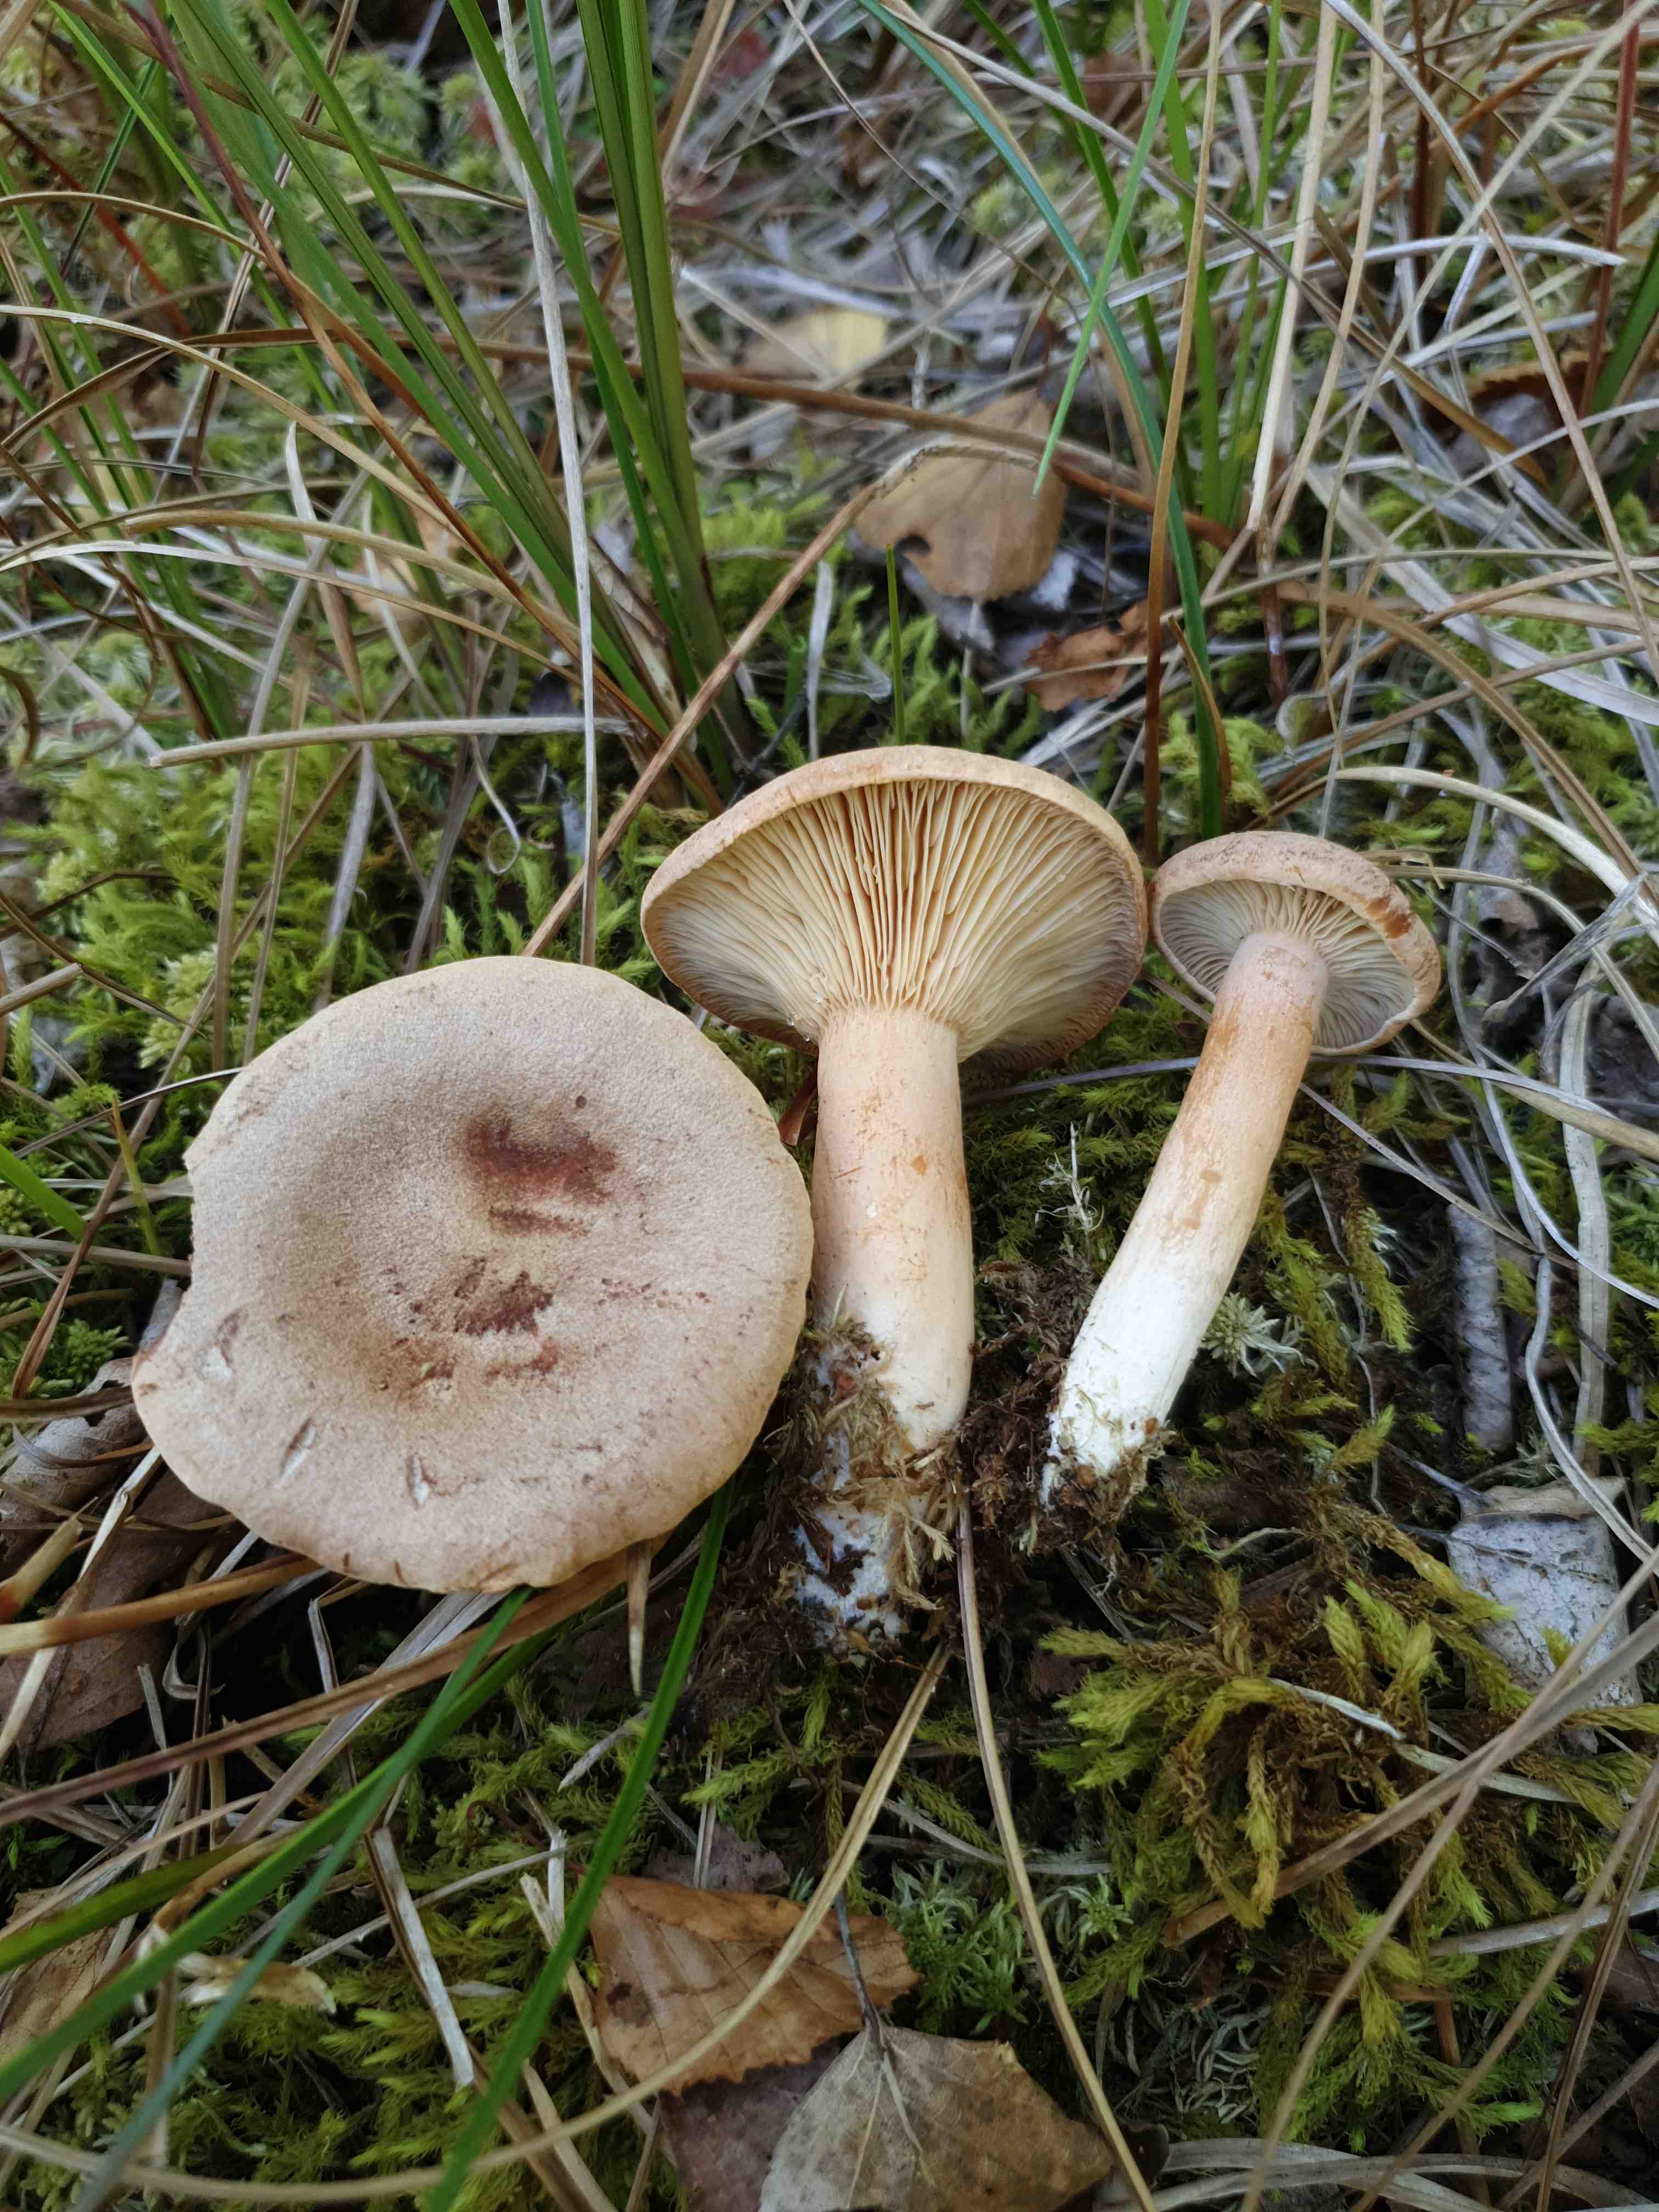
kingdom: Fungi
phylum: Basidiomycota
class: Agaricomycetes
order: Russulales
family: Russulaceae
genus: Lactarius
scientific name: Lactarius helvus
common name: mose-mælkehat
